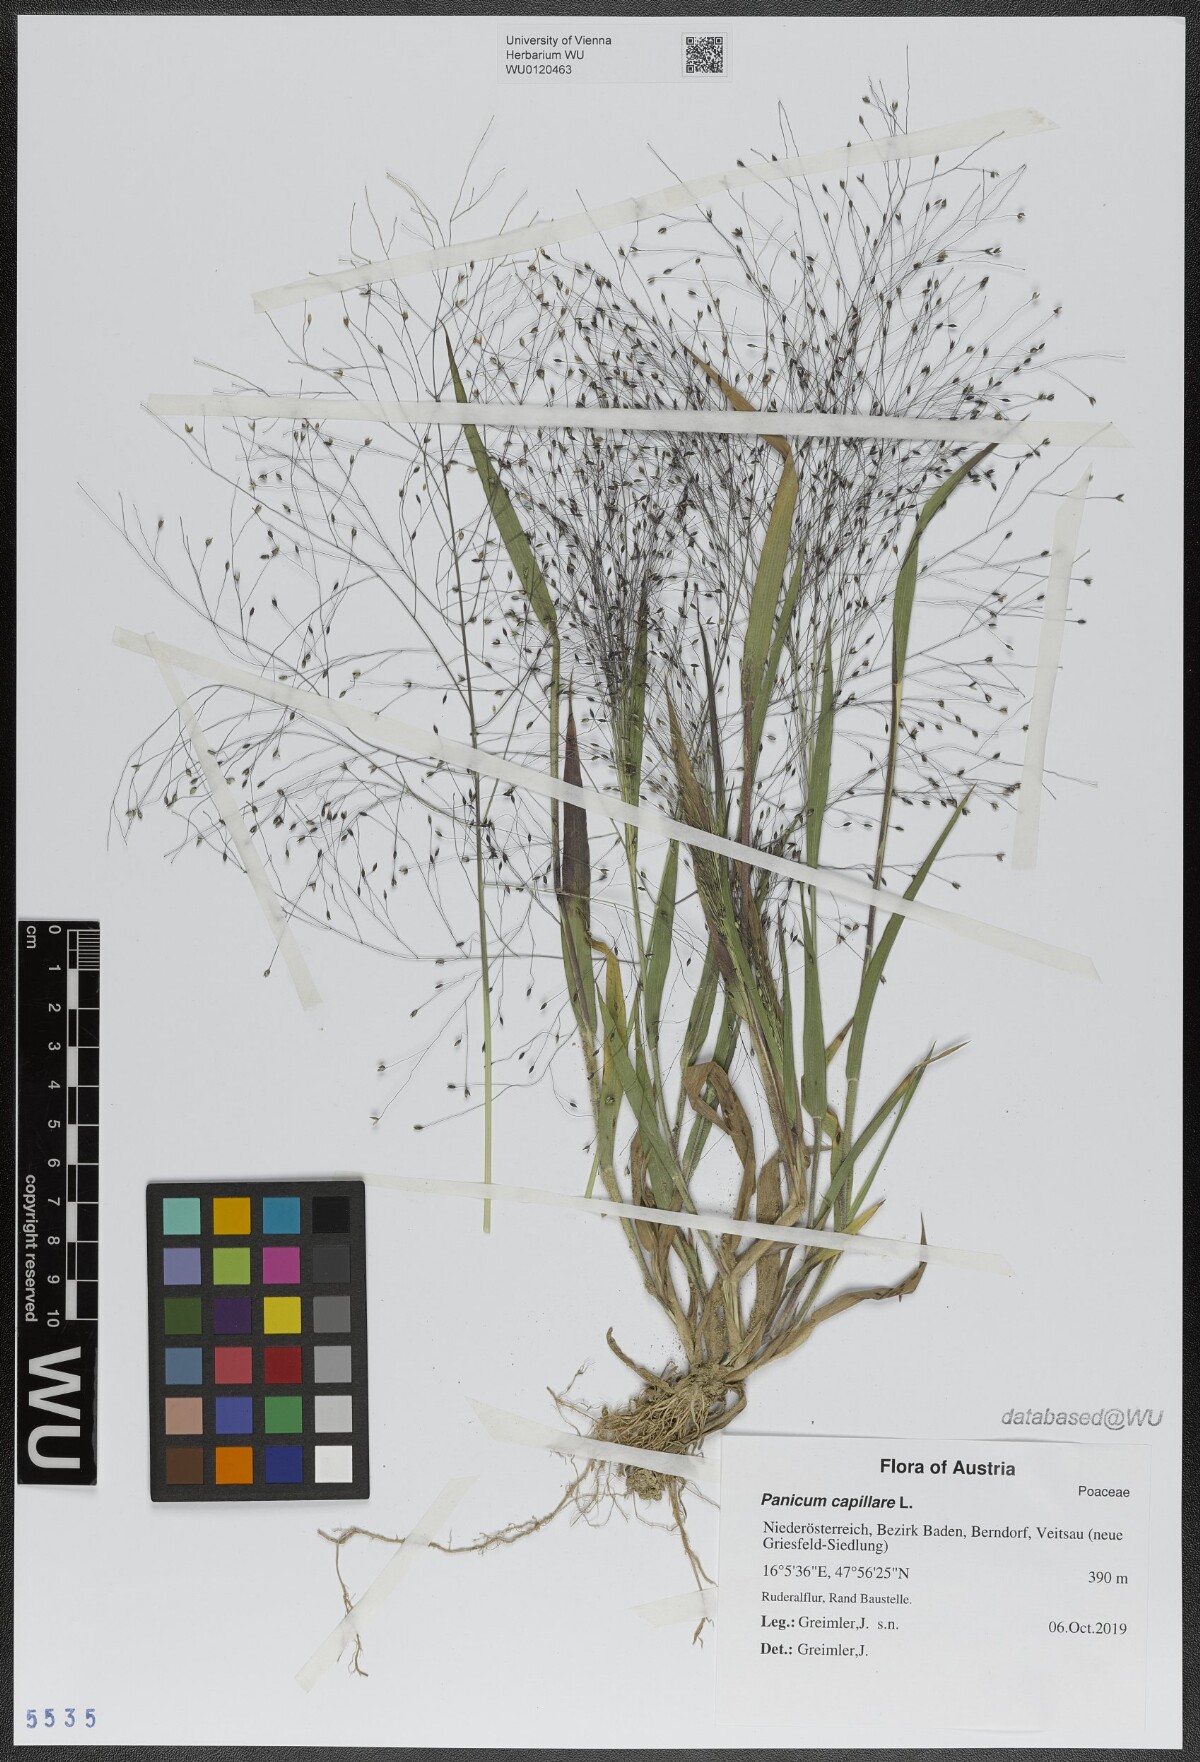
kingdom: Plantae
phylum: Tracheophyta
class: Liliopsida
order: Poales
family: Poaceae
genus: Panicum
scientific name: Panicum capillare
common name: Witch-grass
